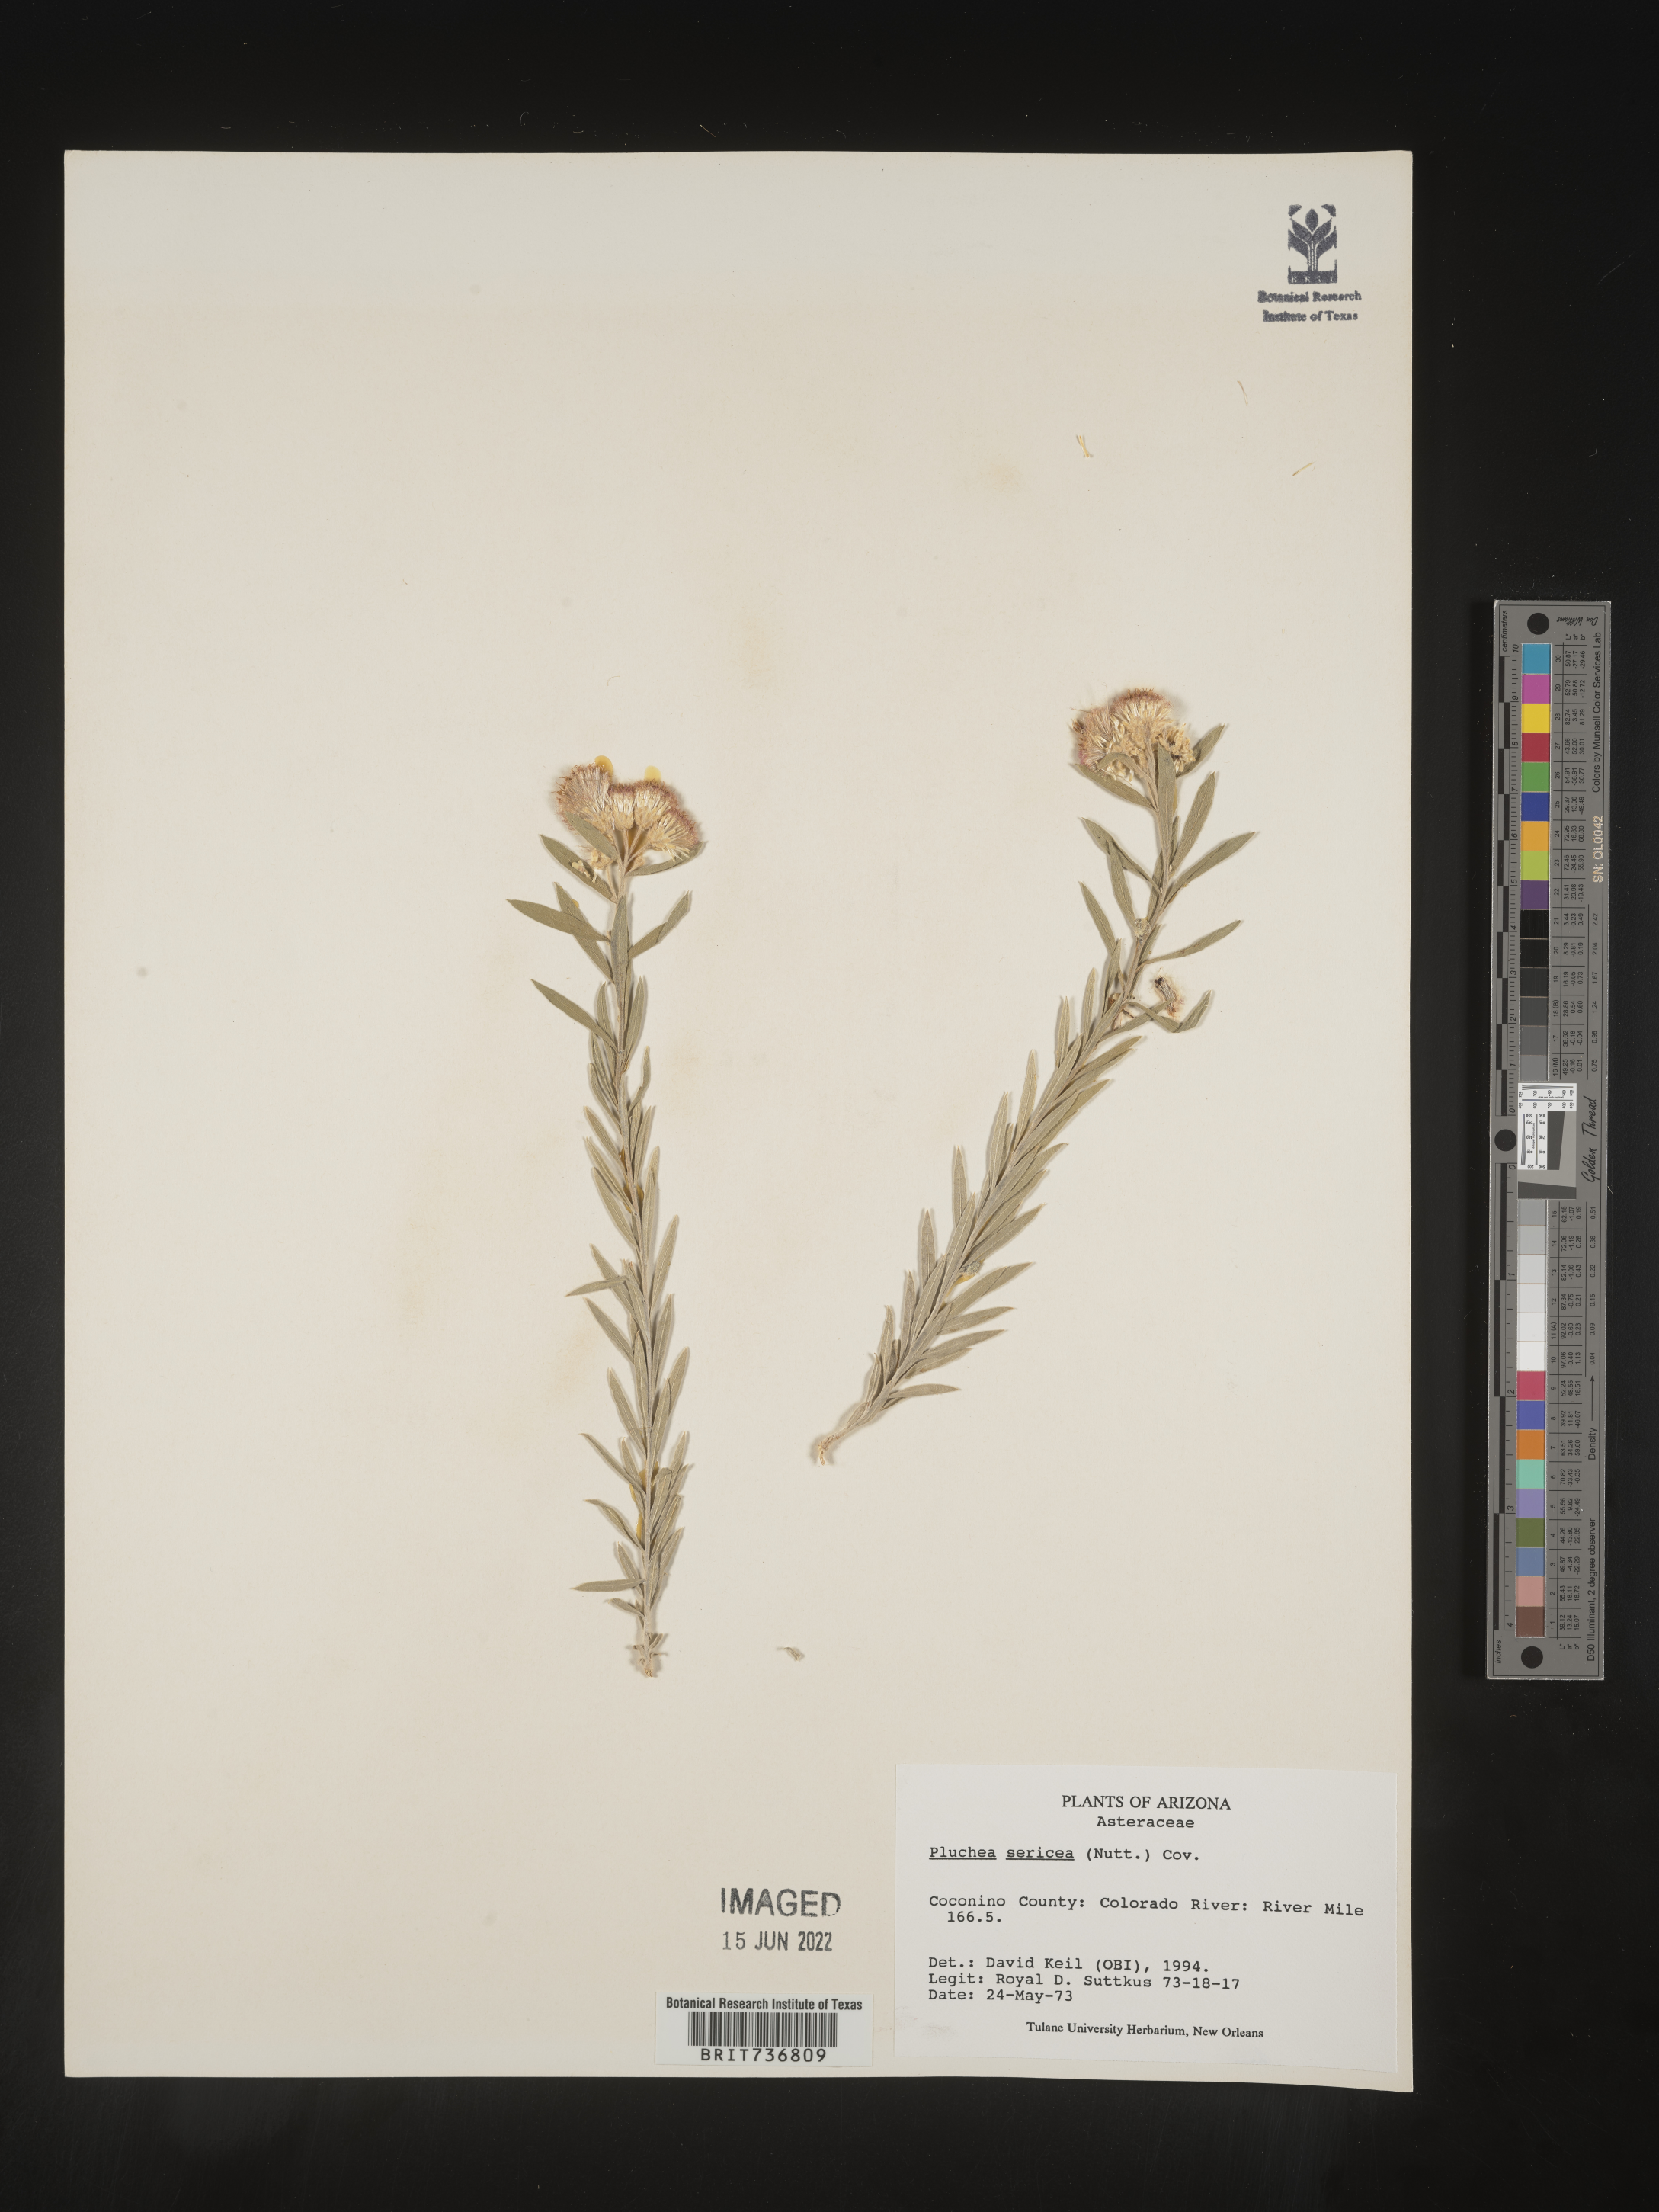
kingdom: Plantae
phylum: Tracheophyta
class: Magnoliopsida
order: Asterales
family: Asteraceae
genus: Pluchea
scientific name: Pluchea sericea
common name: Arrow-weed
